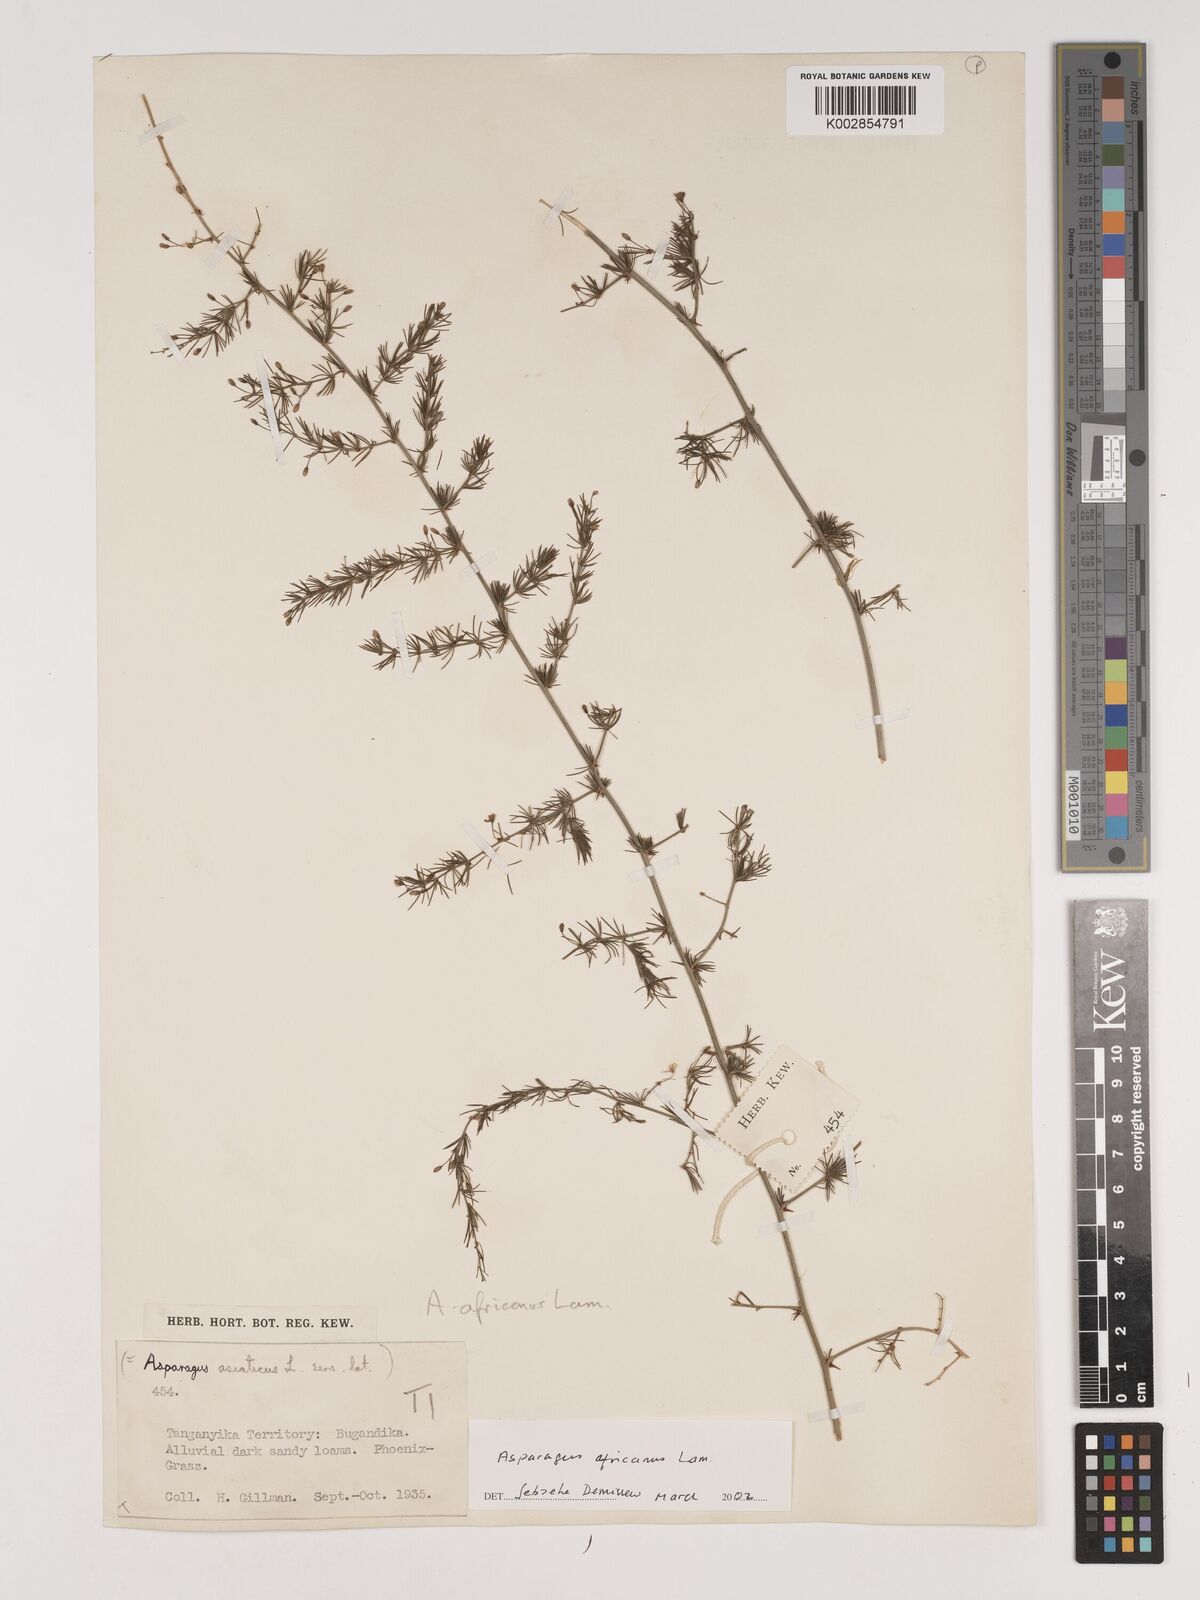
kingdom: Plantae
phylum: Tracheophyta
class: Liliopsida
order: Asparagales
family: Asparagaceae
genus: Asparagus
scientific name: Asparagus africanus
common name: Asparagus-fern
